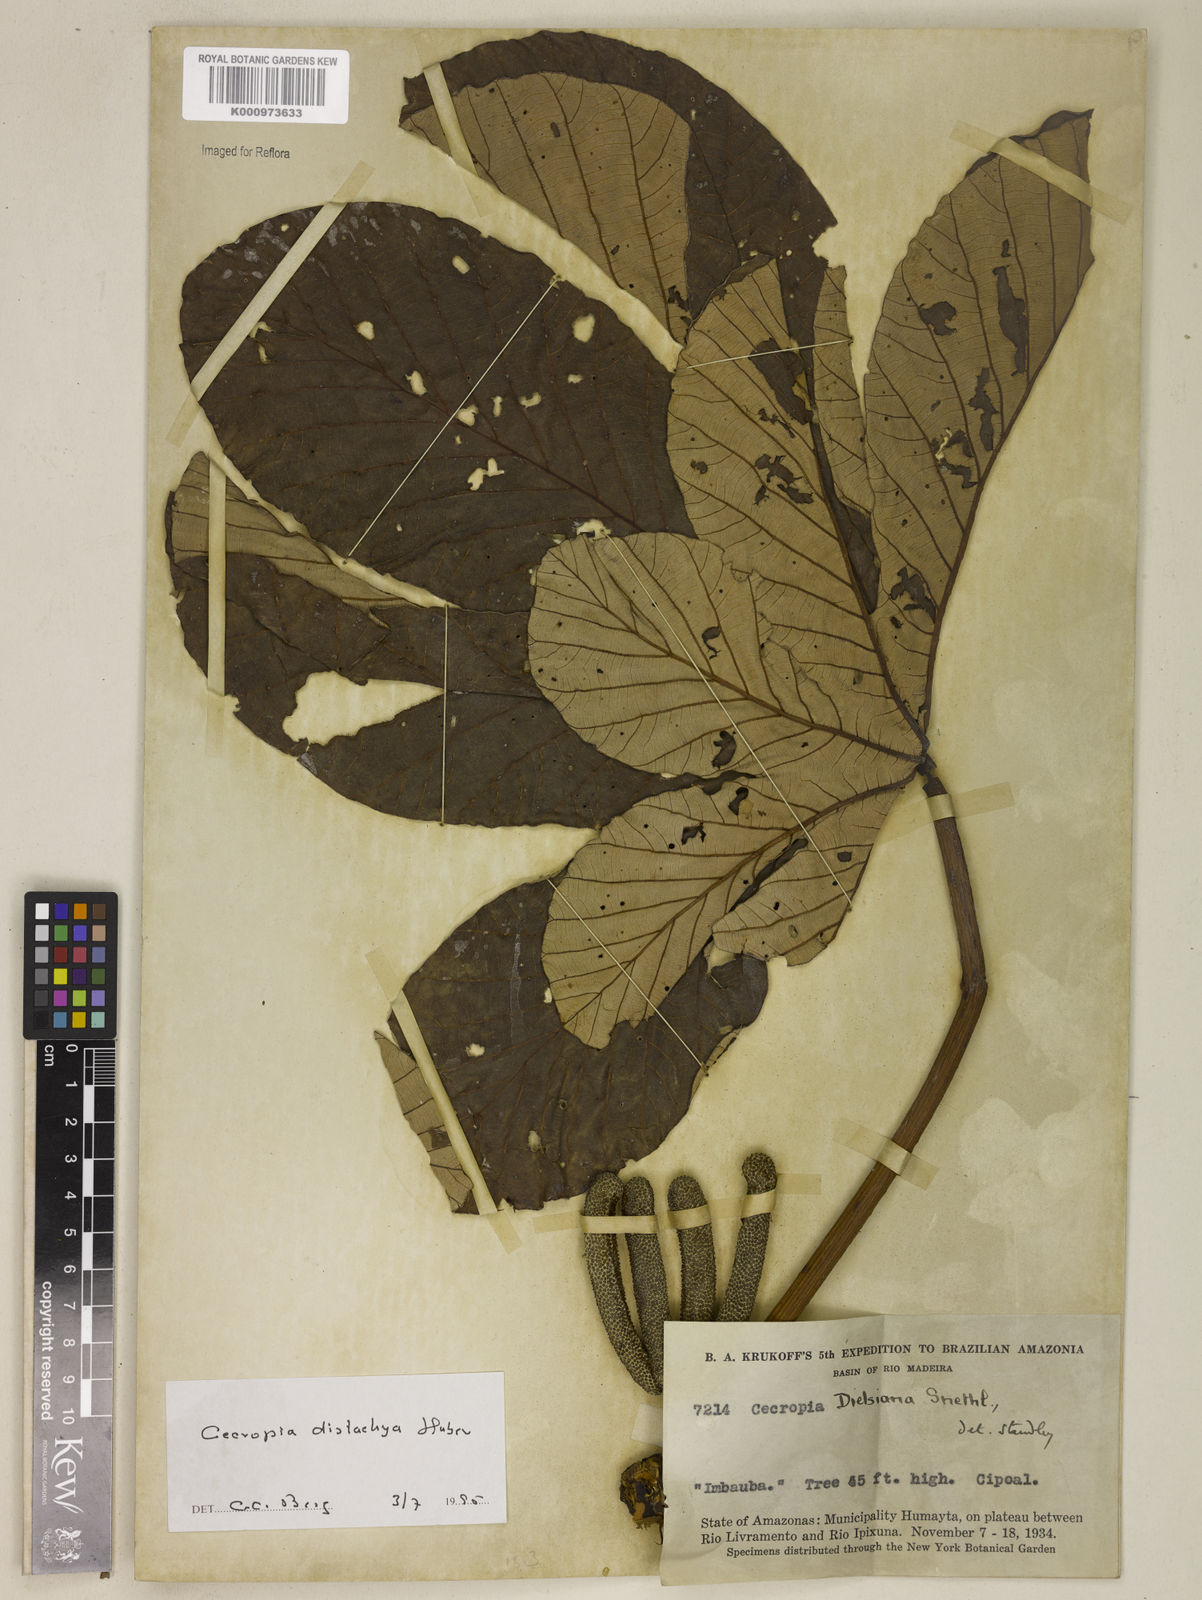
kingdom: Plantae
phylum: Tracheophyta
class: Magnoliopsida
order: Rosales
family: Urticaceae
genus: Cecropia
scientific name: Cecropia distachya
